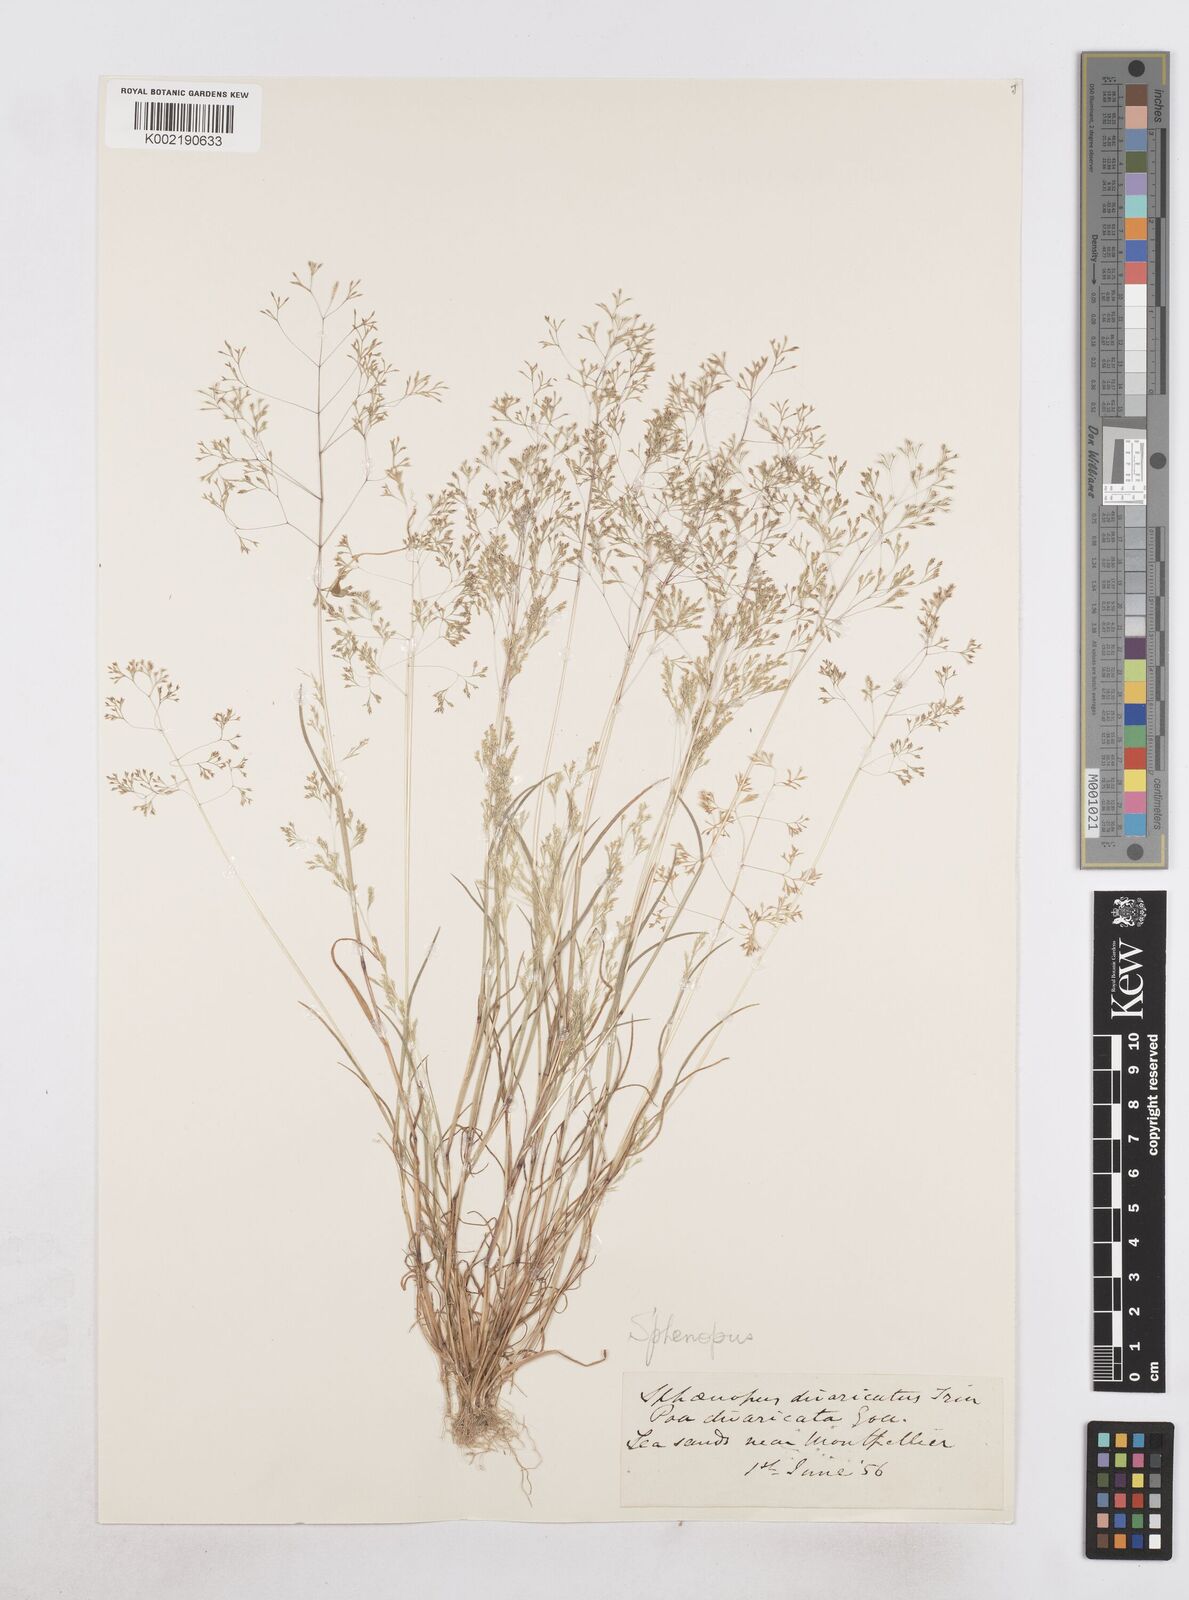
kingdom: Plantae
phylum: Tracheophyta
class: Liliopsida
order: Poales
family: Poaceae
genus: Sphenopus
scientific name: Sphenopus divaricatus
